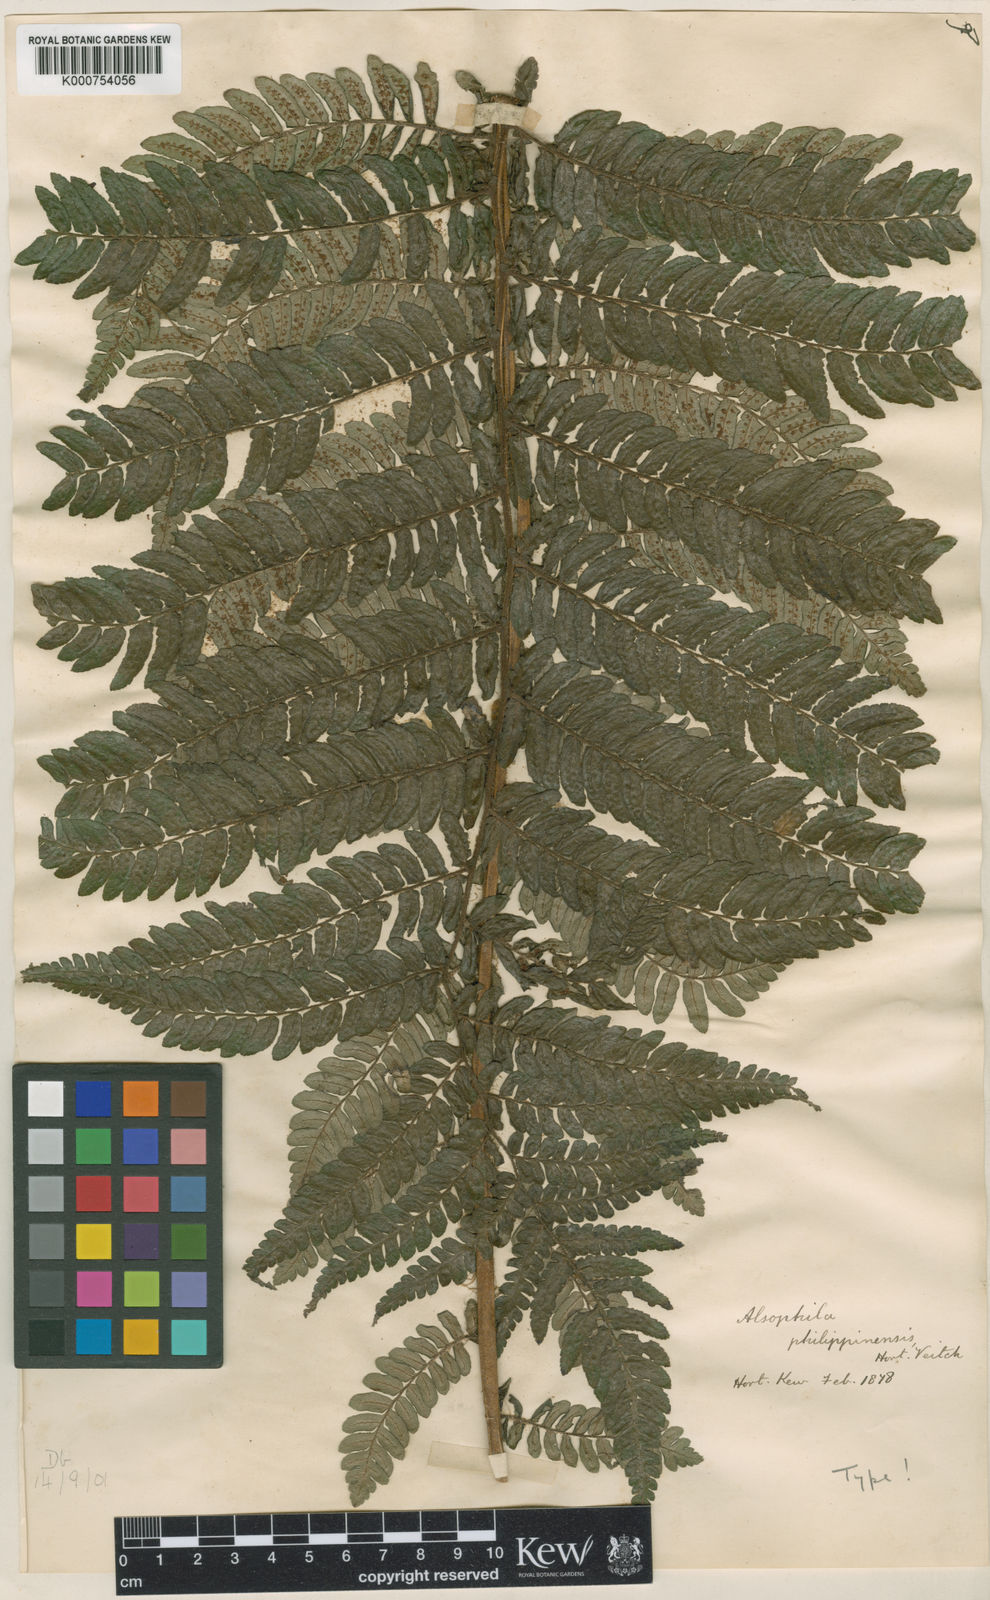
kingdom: Plantae
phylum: Tracheophyta
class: Polypodiopsida
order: Cyatheales
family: Cyatheaceae
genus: Sphaeropteris
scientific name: Sphaeropteris philippinensis
